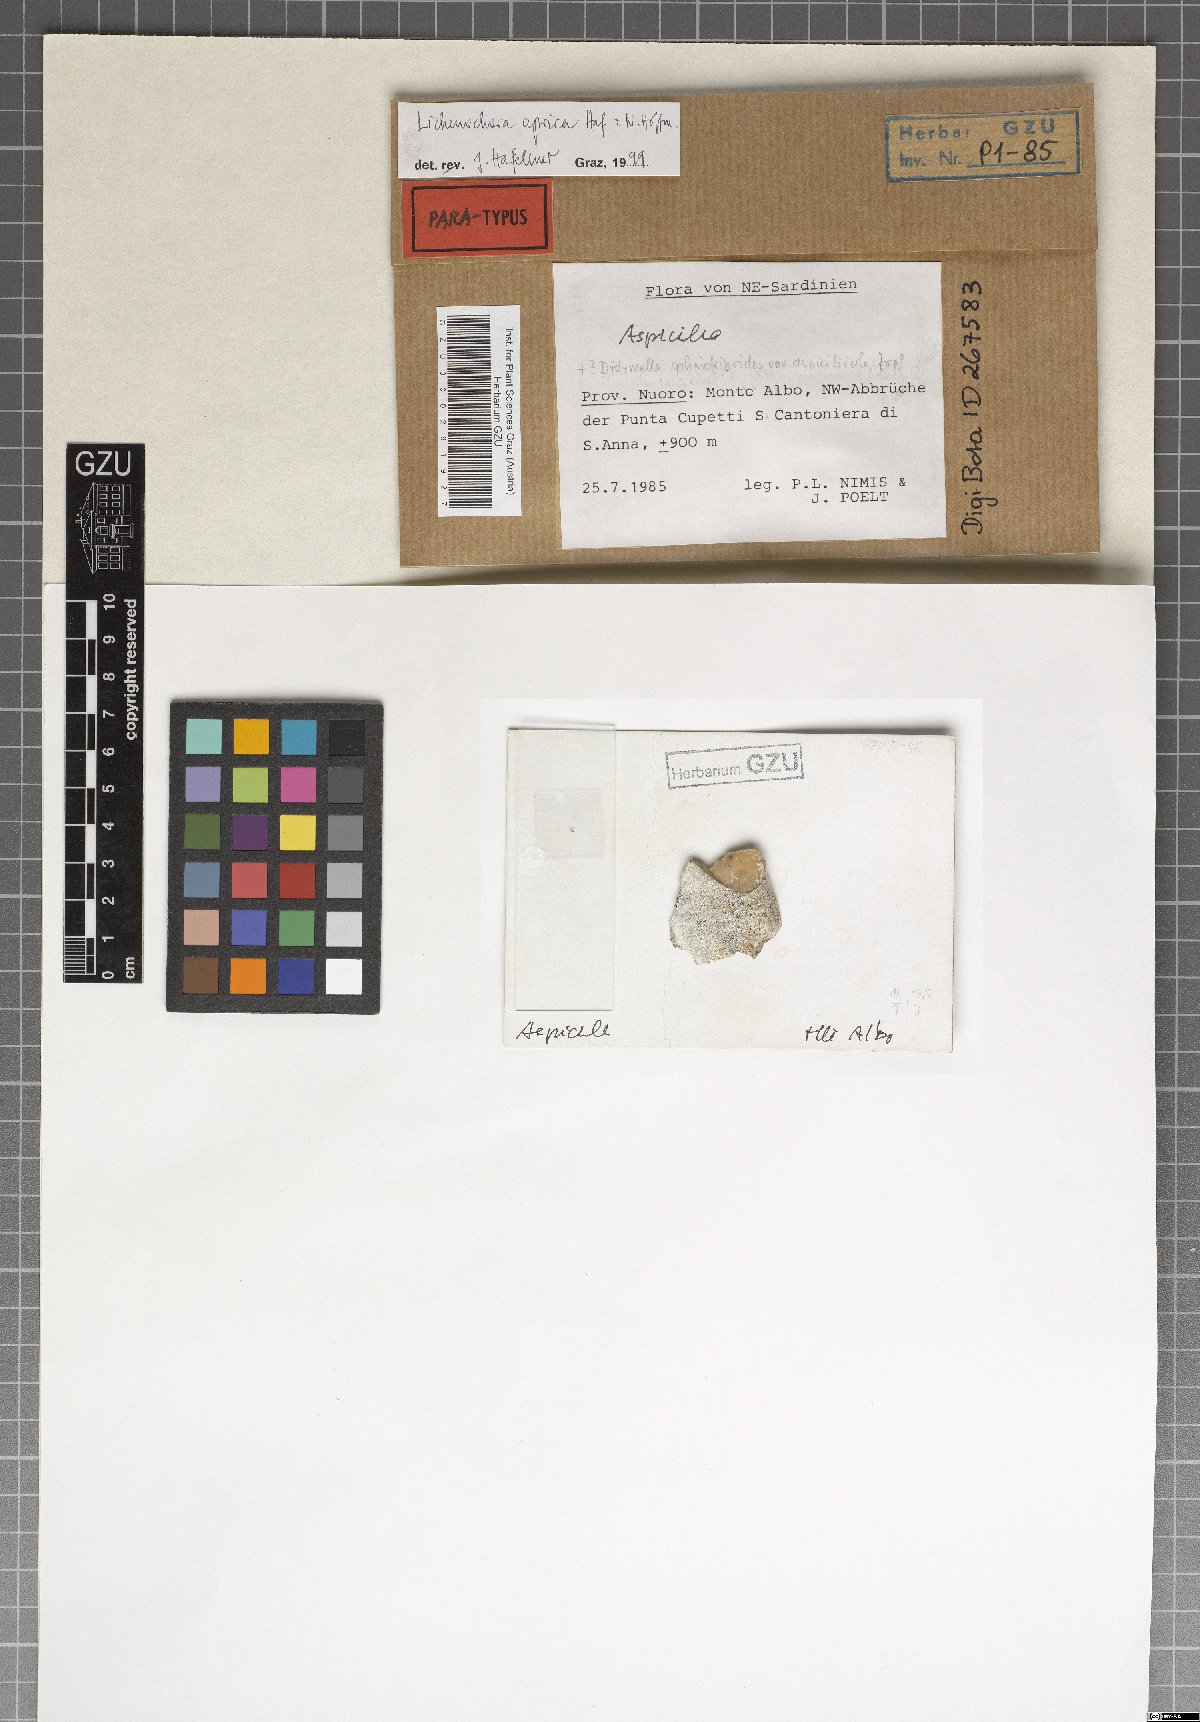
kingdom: Fungi
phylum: Ascomycota
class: Sordariomycetes
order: Phyllachorales
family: Phyllachoraceae
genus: Lichenochora
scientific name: Lichenochora aprica
